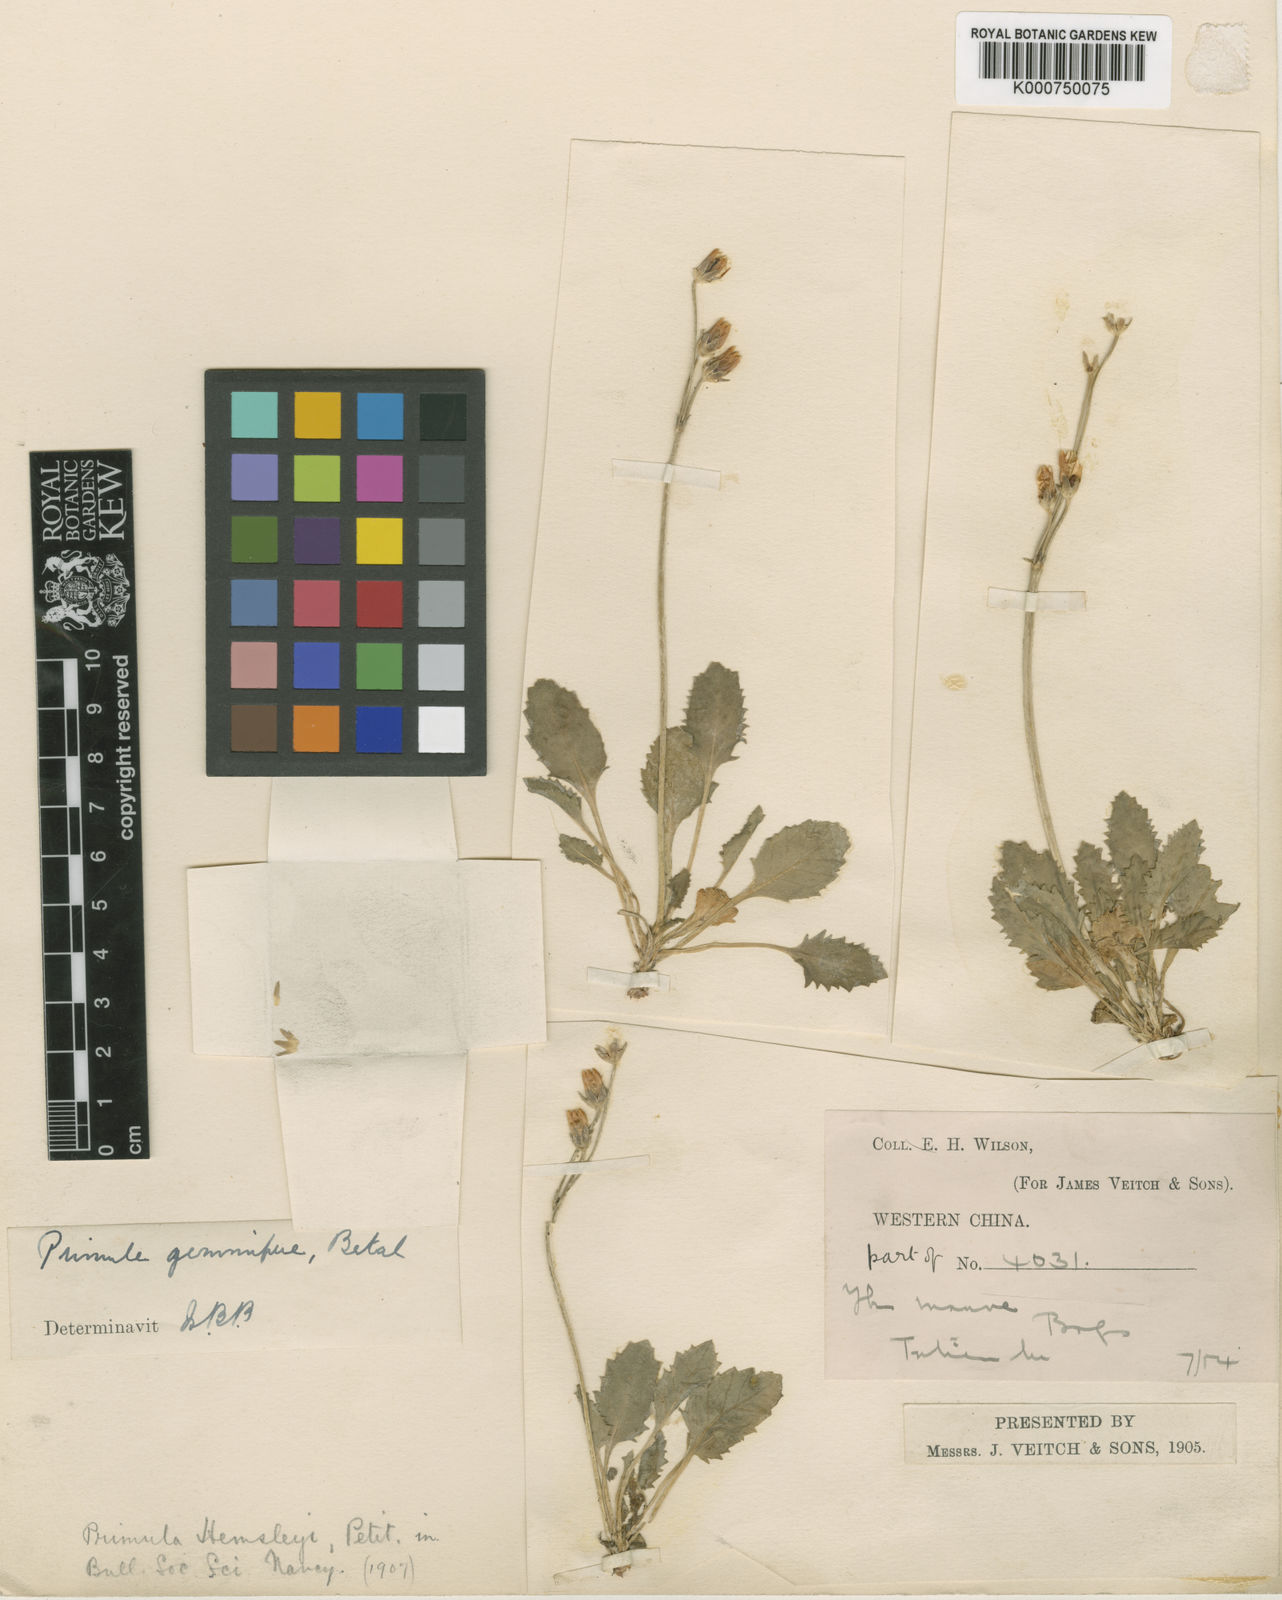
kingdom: Plantae
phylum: Tracheophyta
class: Magnoliopsida
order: Ericales
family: Primulaceae
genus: Primula
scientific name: Primula gemmifera
